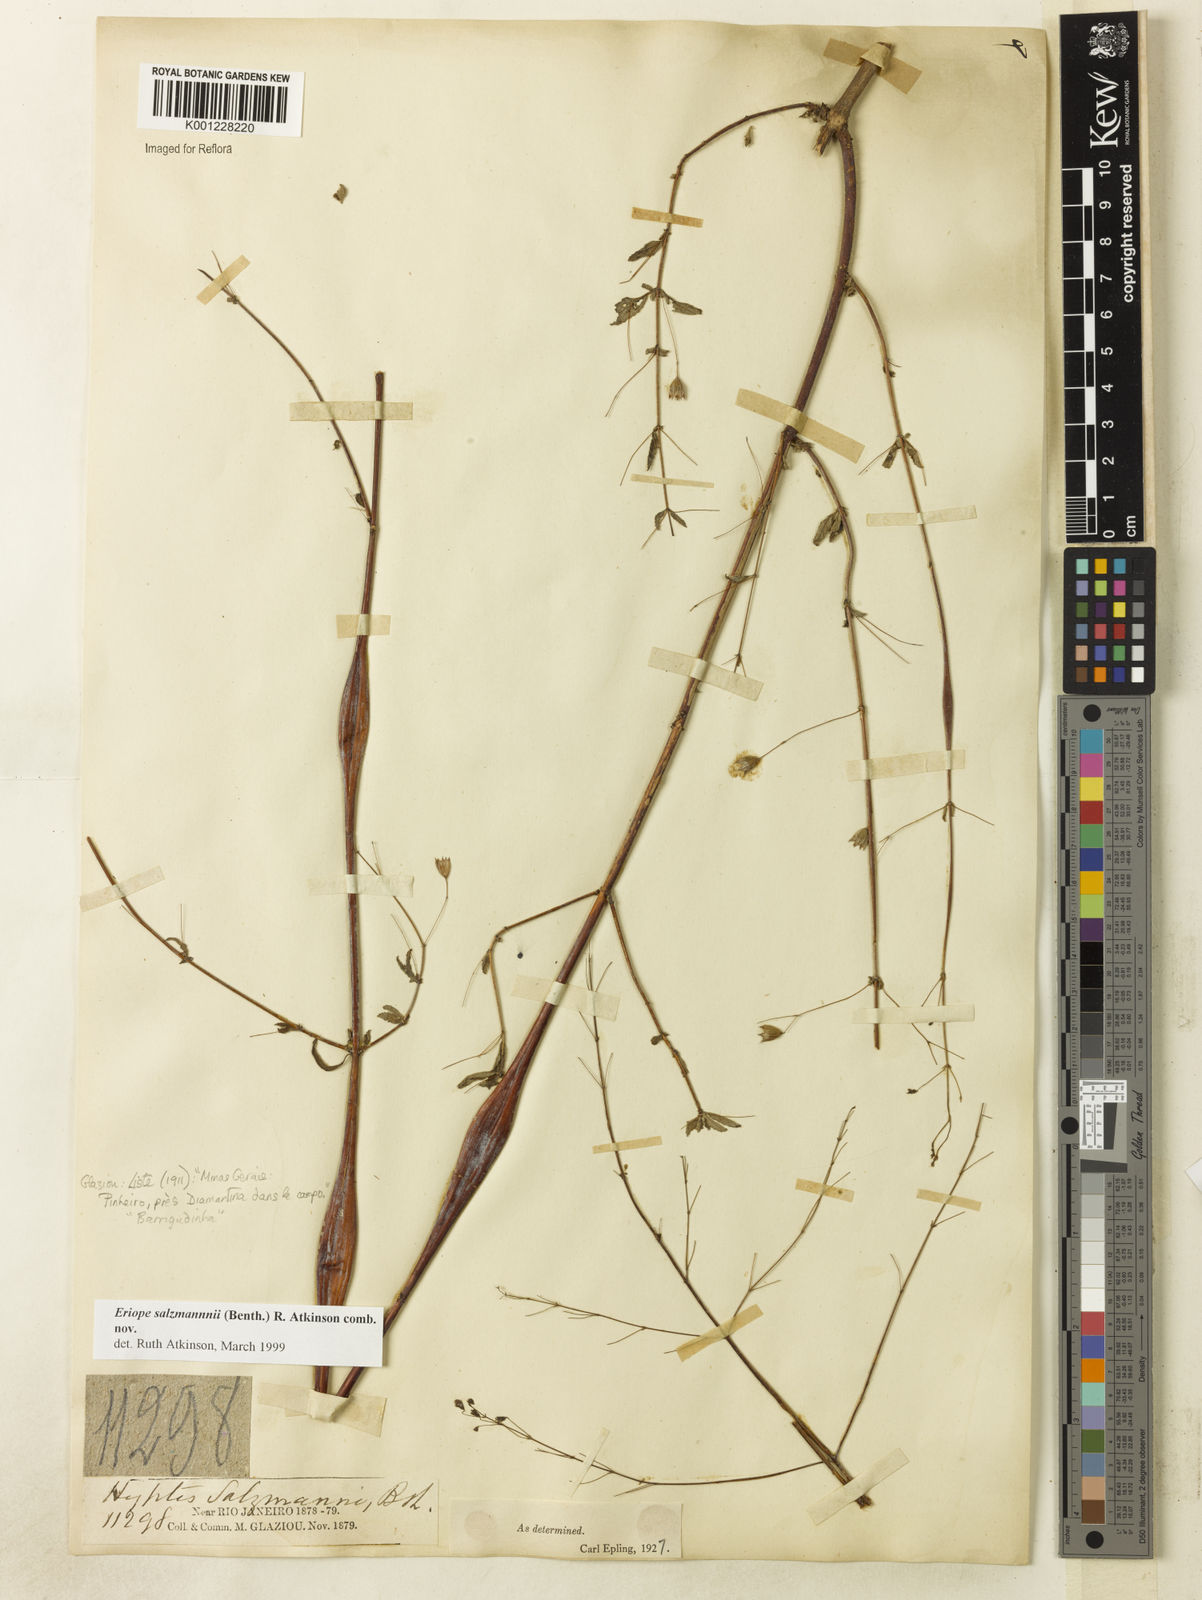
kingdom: Plantae
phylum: Tracheophyta
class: Magnoliopsida
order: Lamiales
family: Lamiaceae
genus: Hypenia
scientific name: Hypenia salzmannii
